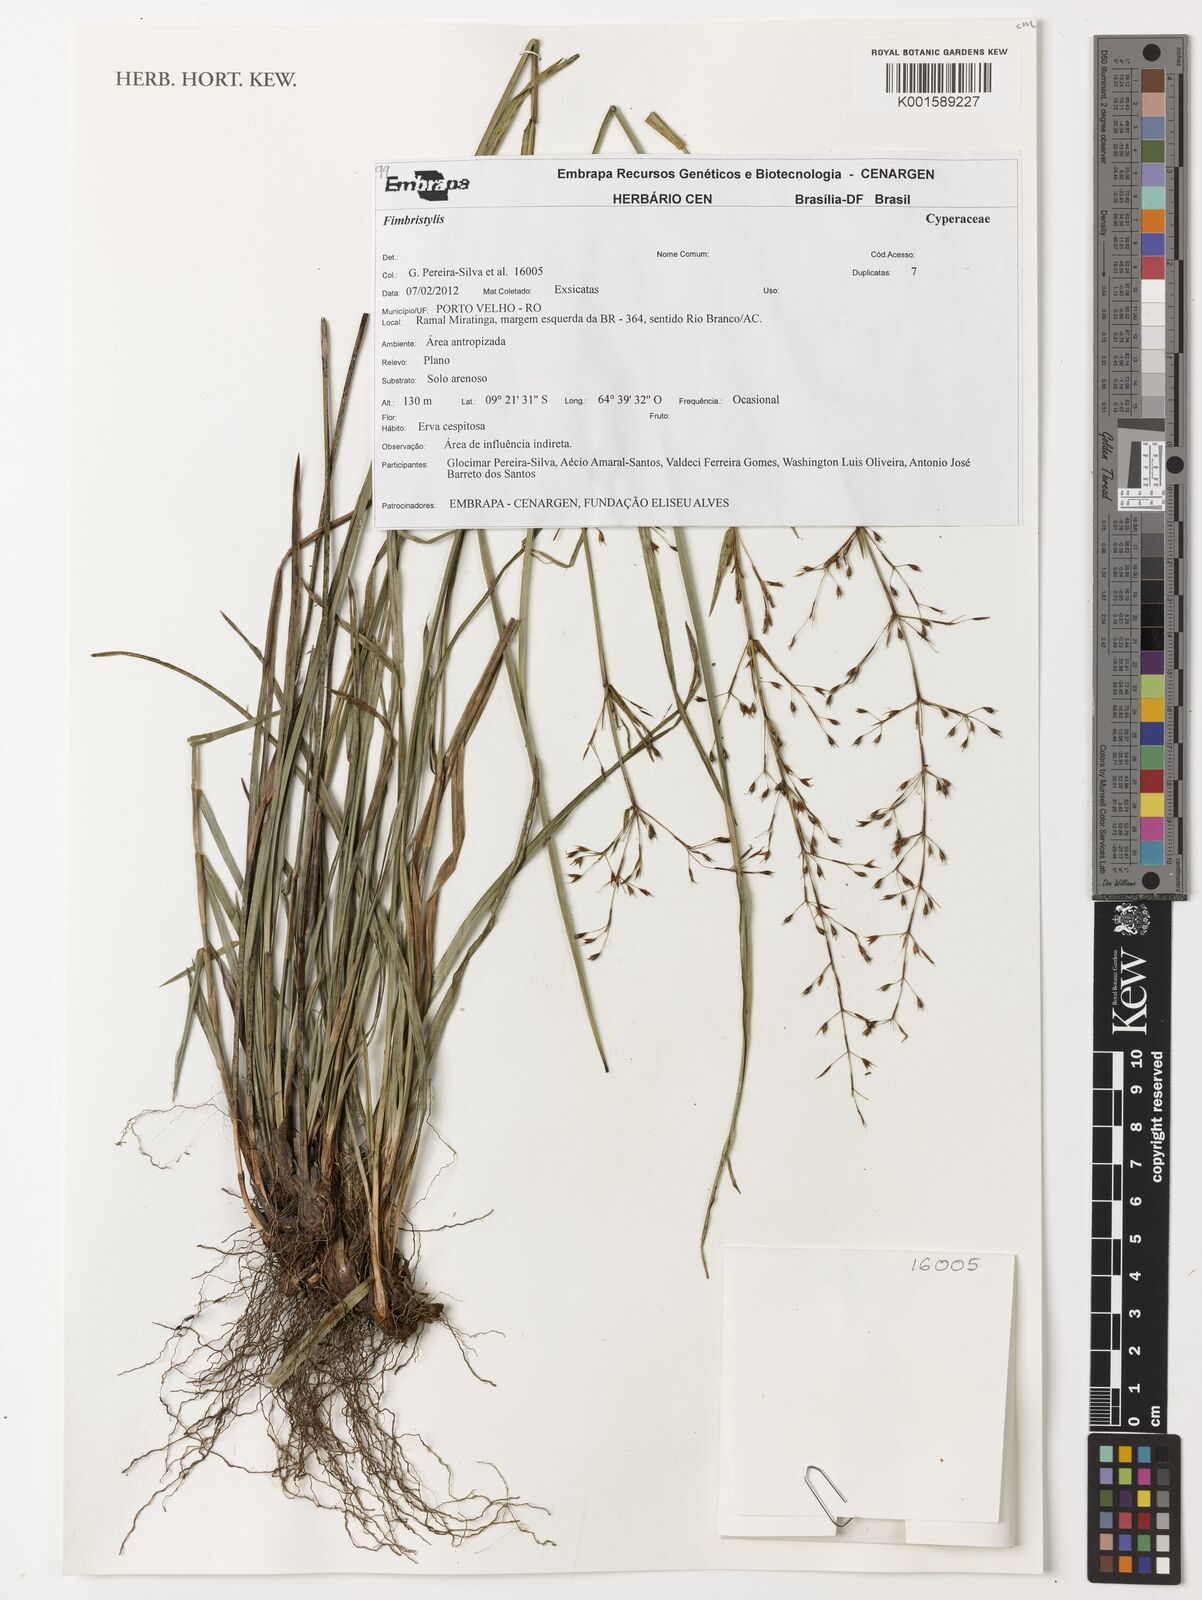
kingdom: Plantae
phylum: Tracheophyta
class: Liliopsida
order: Poales
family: Cyperaceae
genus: Fimbristylis
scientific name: Fimbristylis
